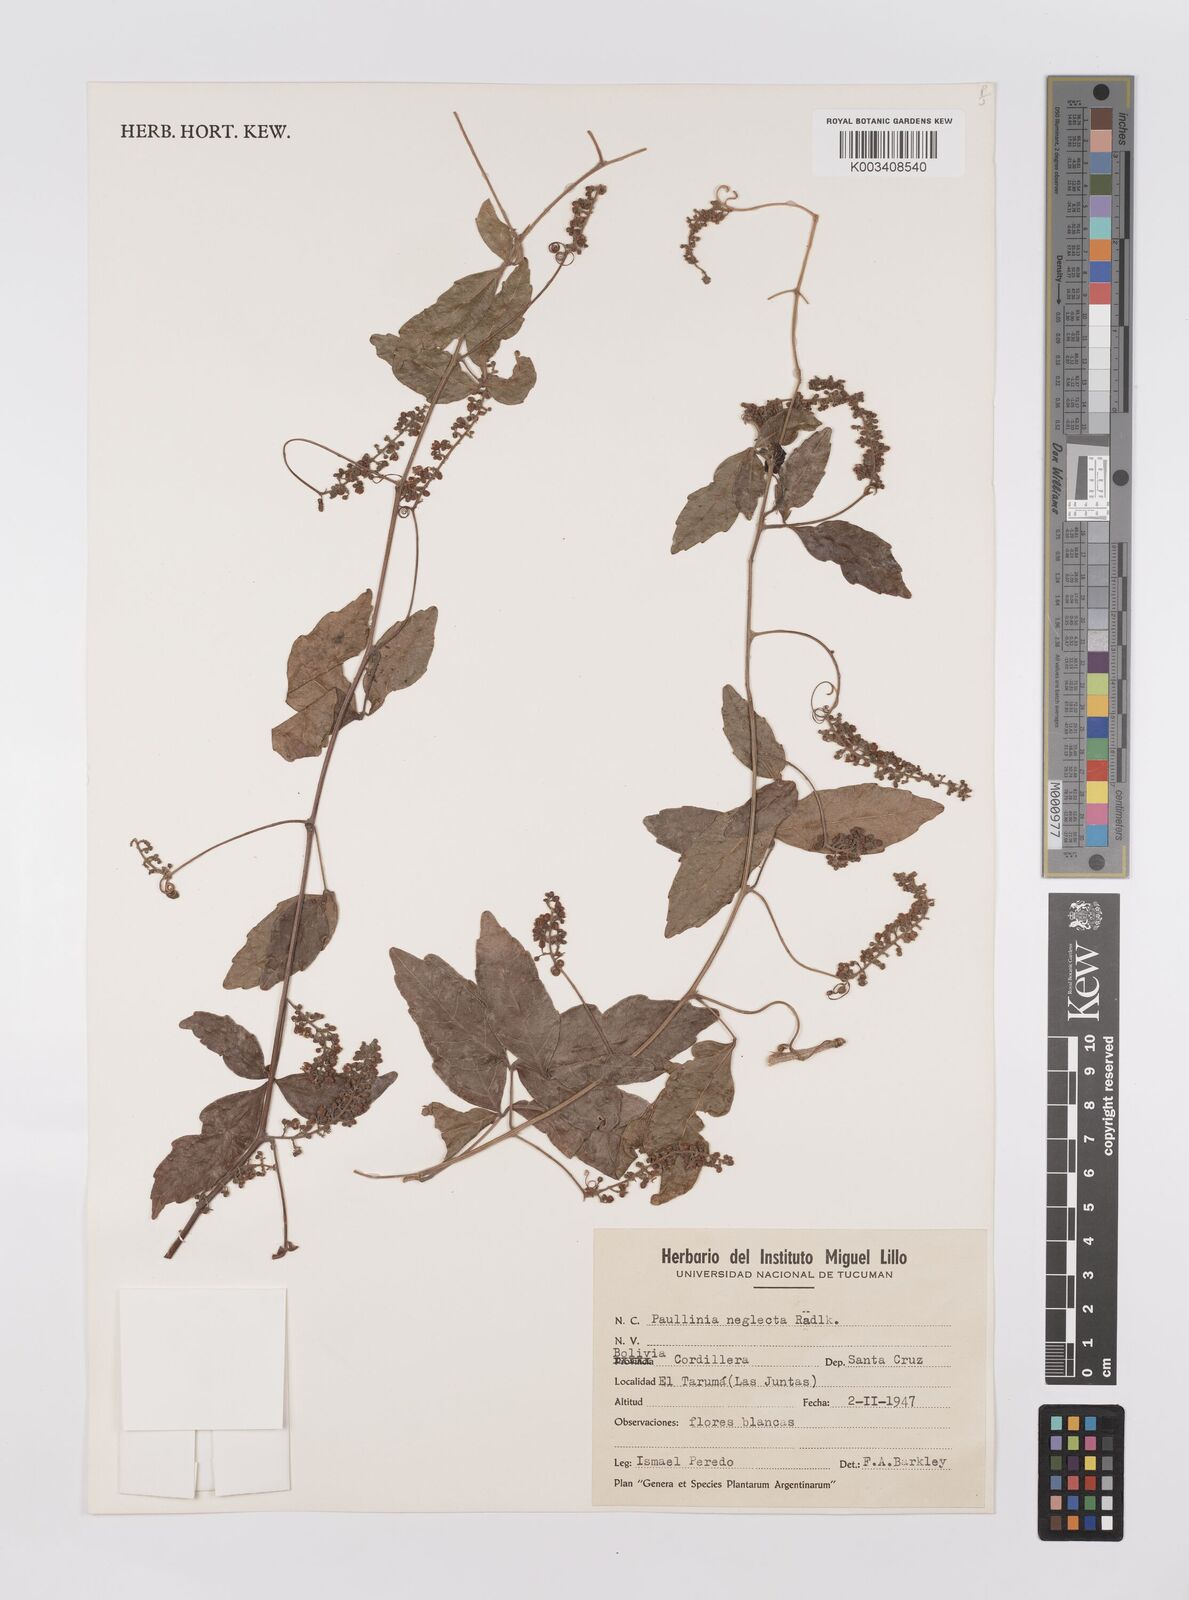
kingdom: Plantae
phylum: Tracheophyta
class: Magnoliopsida
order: Sapindales
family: Sapindaceae
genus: Paullinia
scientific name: Paullinia elegans
